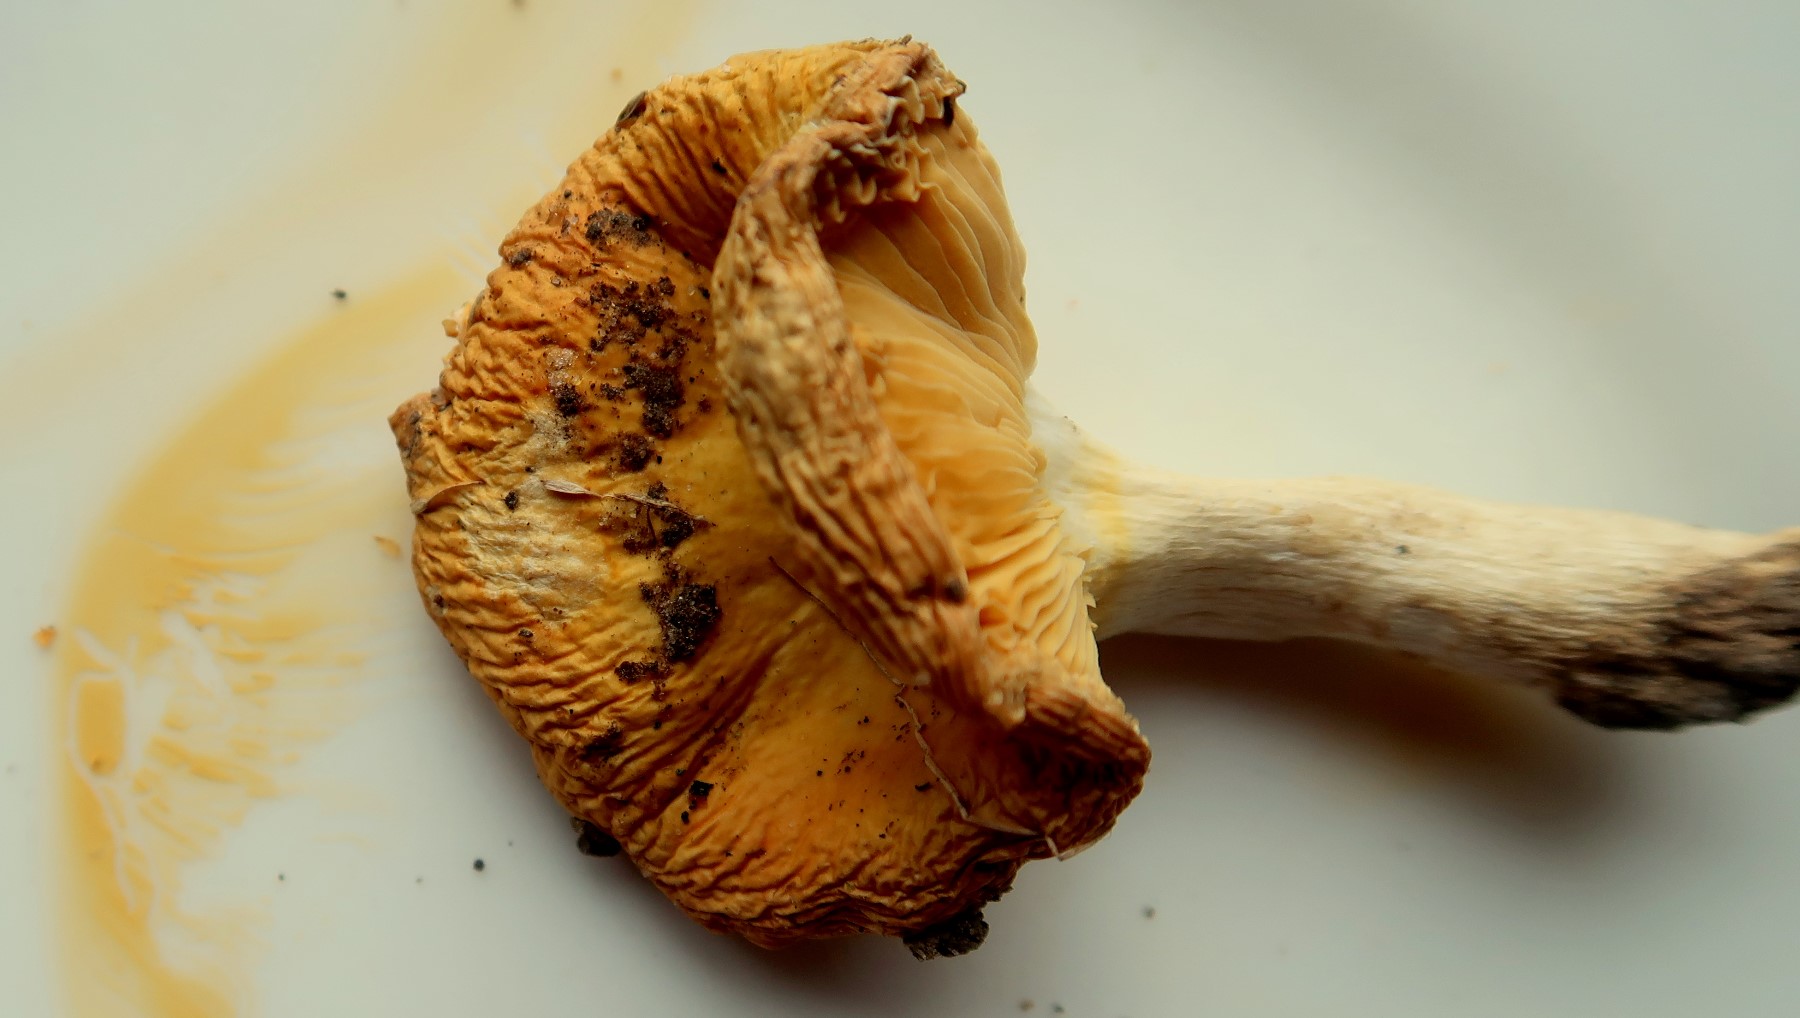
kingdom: Fungi
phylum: Basidiomycota
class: Agaricomycetes
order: Russulales
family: Russulaceae
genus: Russula
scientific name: Russula risigallina
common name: abrikos-skørhat
